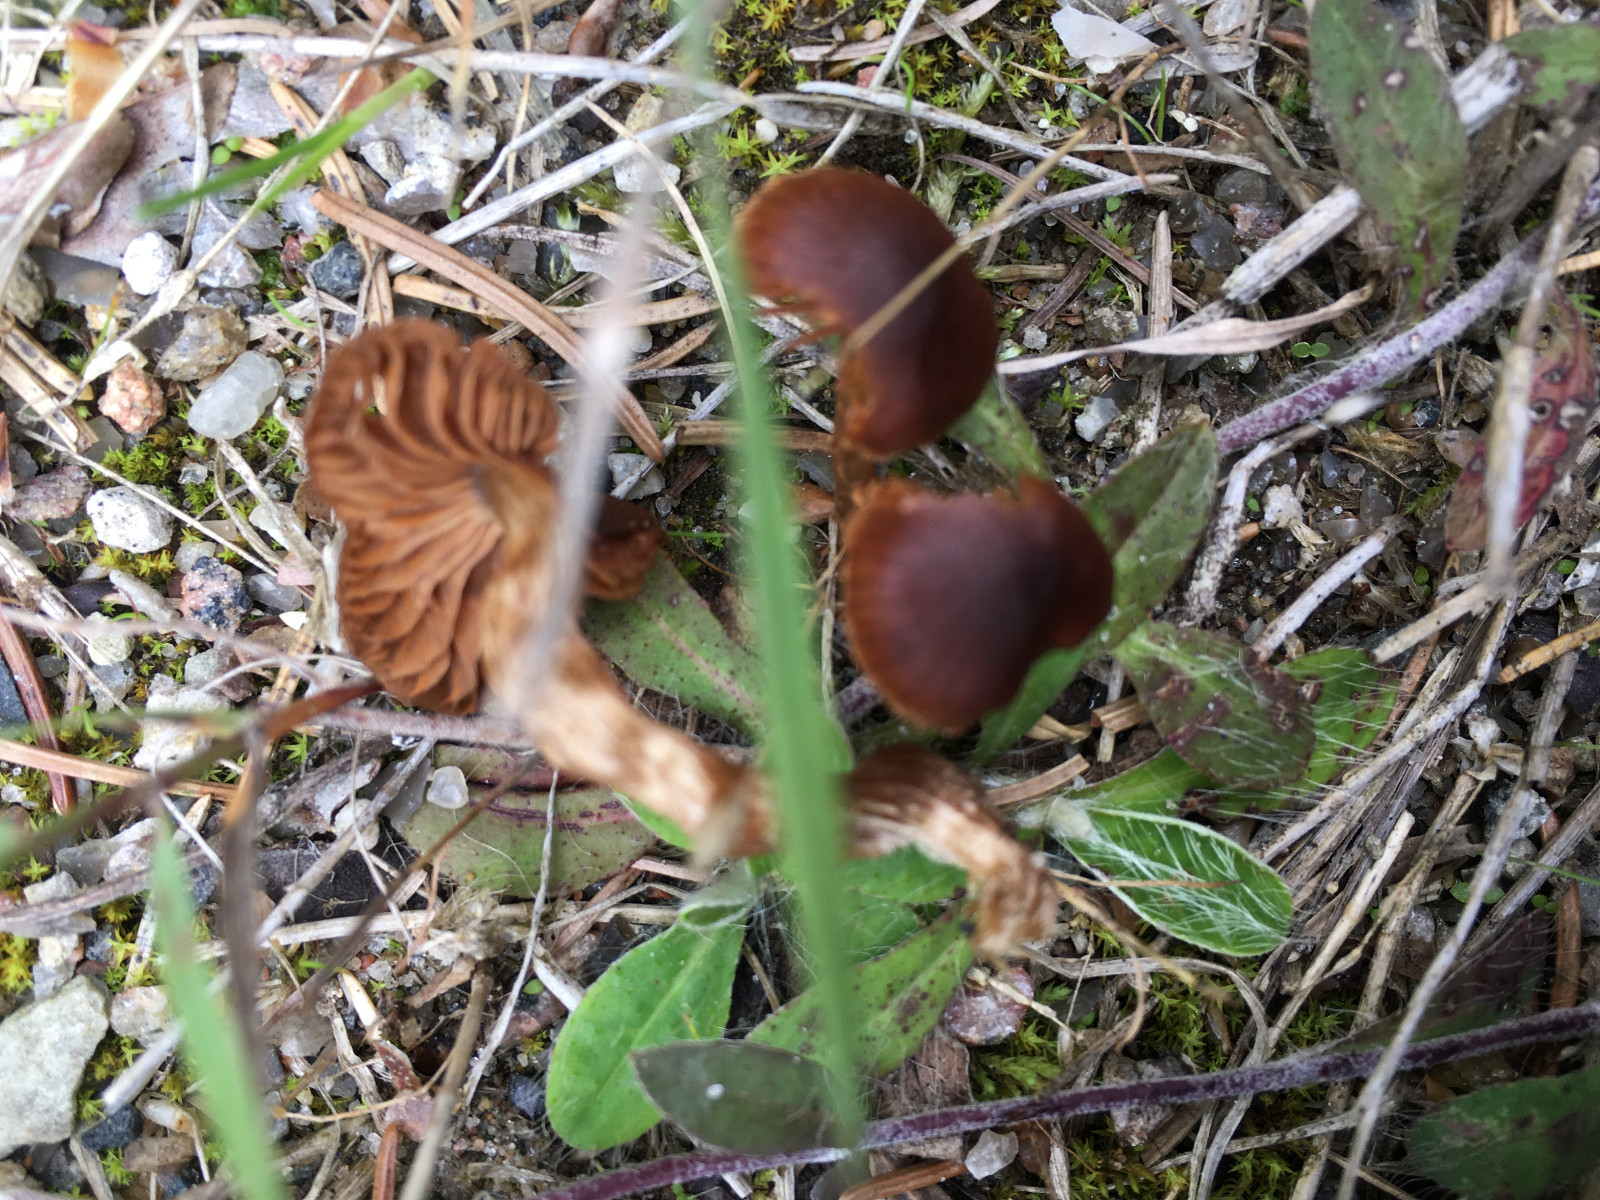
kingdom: Fungi
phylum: Basidiomycota
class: Agaricomycetes
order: Agaricales
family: Cortinariaceae
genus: Cortinarius
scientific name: Cortinarius
